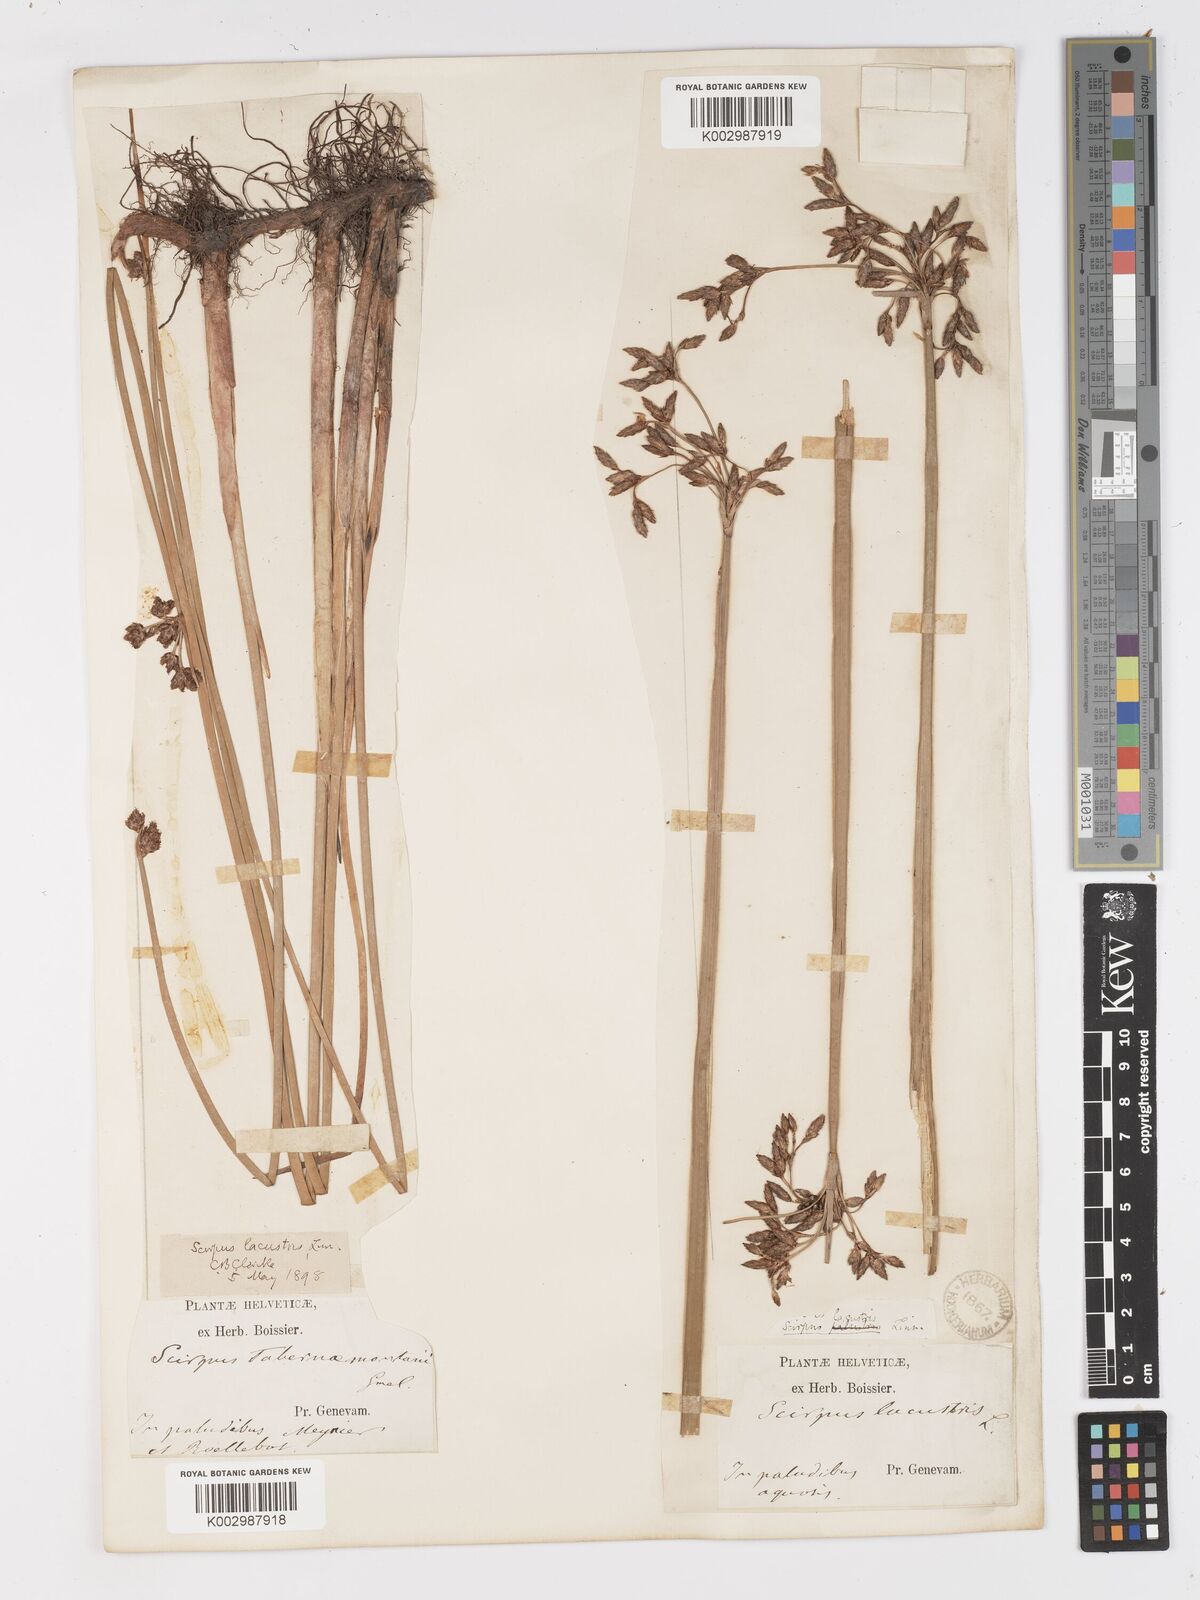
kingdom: Plantae
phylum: Tracheophyta
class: Liliopsida
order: Poales
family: Cyperaceae
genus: Schoenoplectus
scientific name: Schoenoplectus tabernaemontani
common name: Grey club-rush
